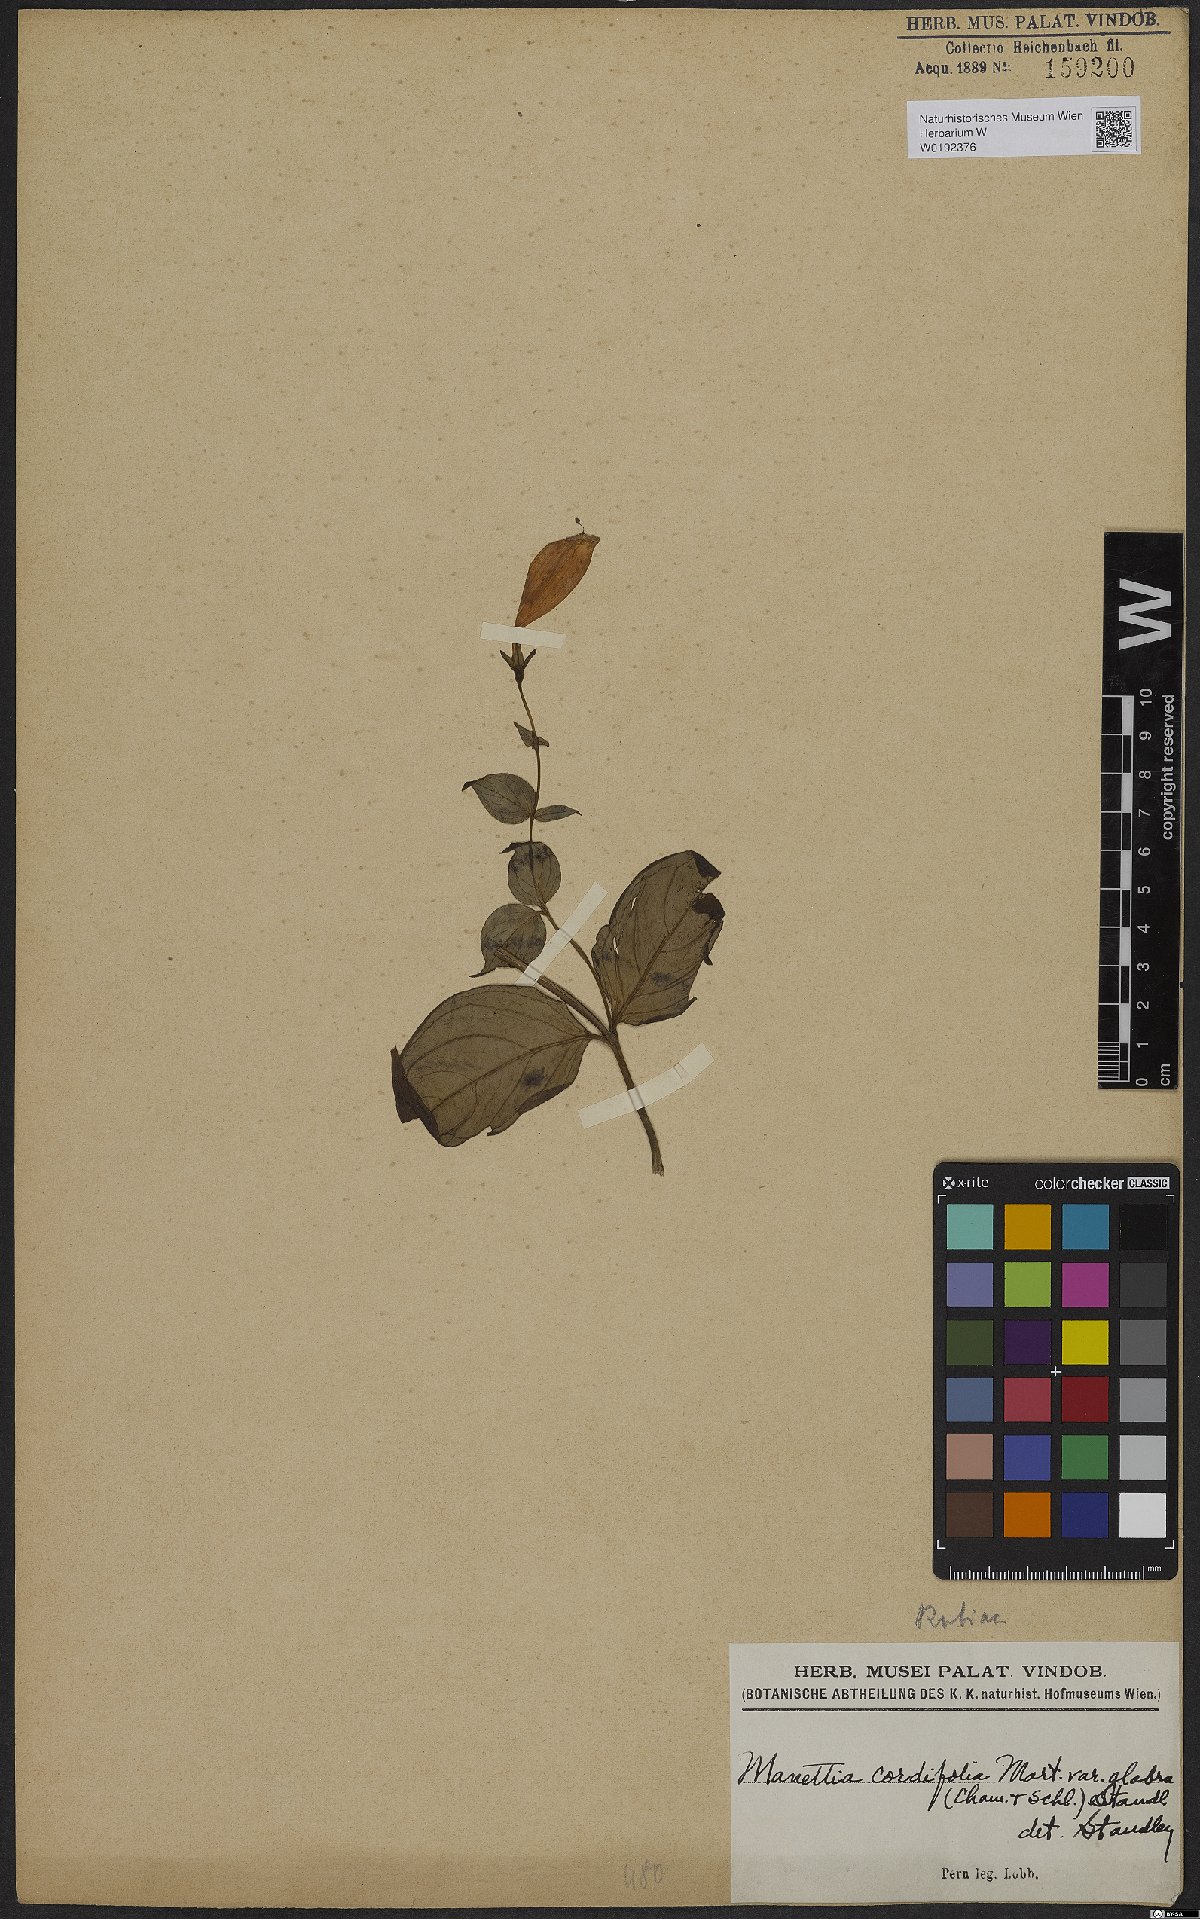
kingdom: Plantae
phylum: Tracheophyta
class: Magnoliopsida
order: Gentianales
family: Rubiaceae
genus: Manettia
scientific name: Manettia cordifolia
